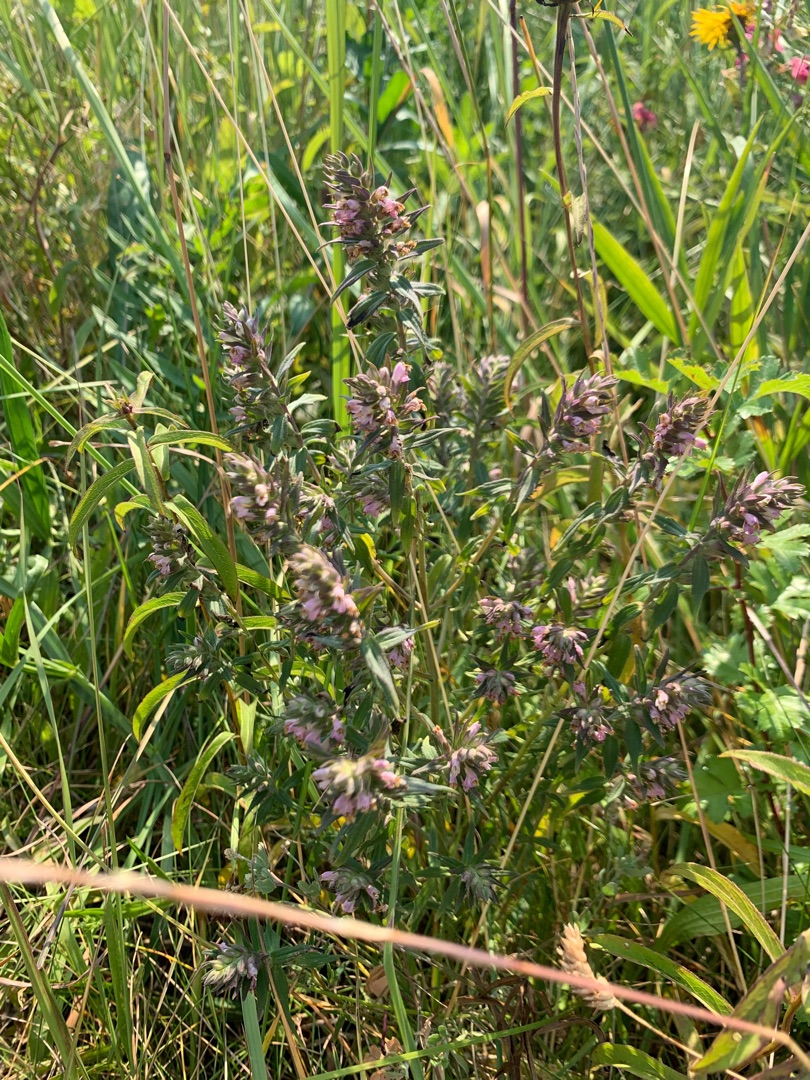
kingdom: Plantae
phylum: Tracheophyta
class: Magnoliopsida
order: Lamiales
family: Orobanchaceae
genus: Odontites
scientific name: Odontites vulgaris
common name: Høst-rødtop
